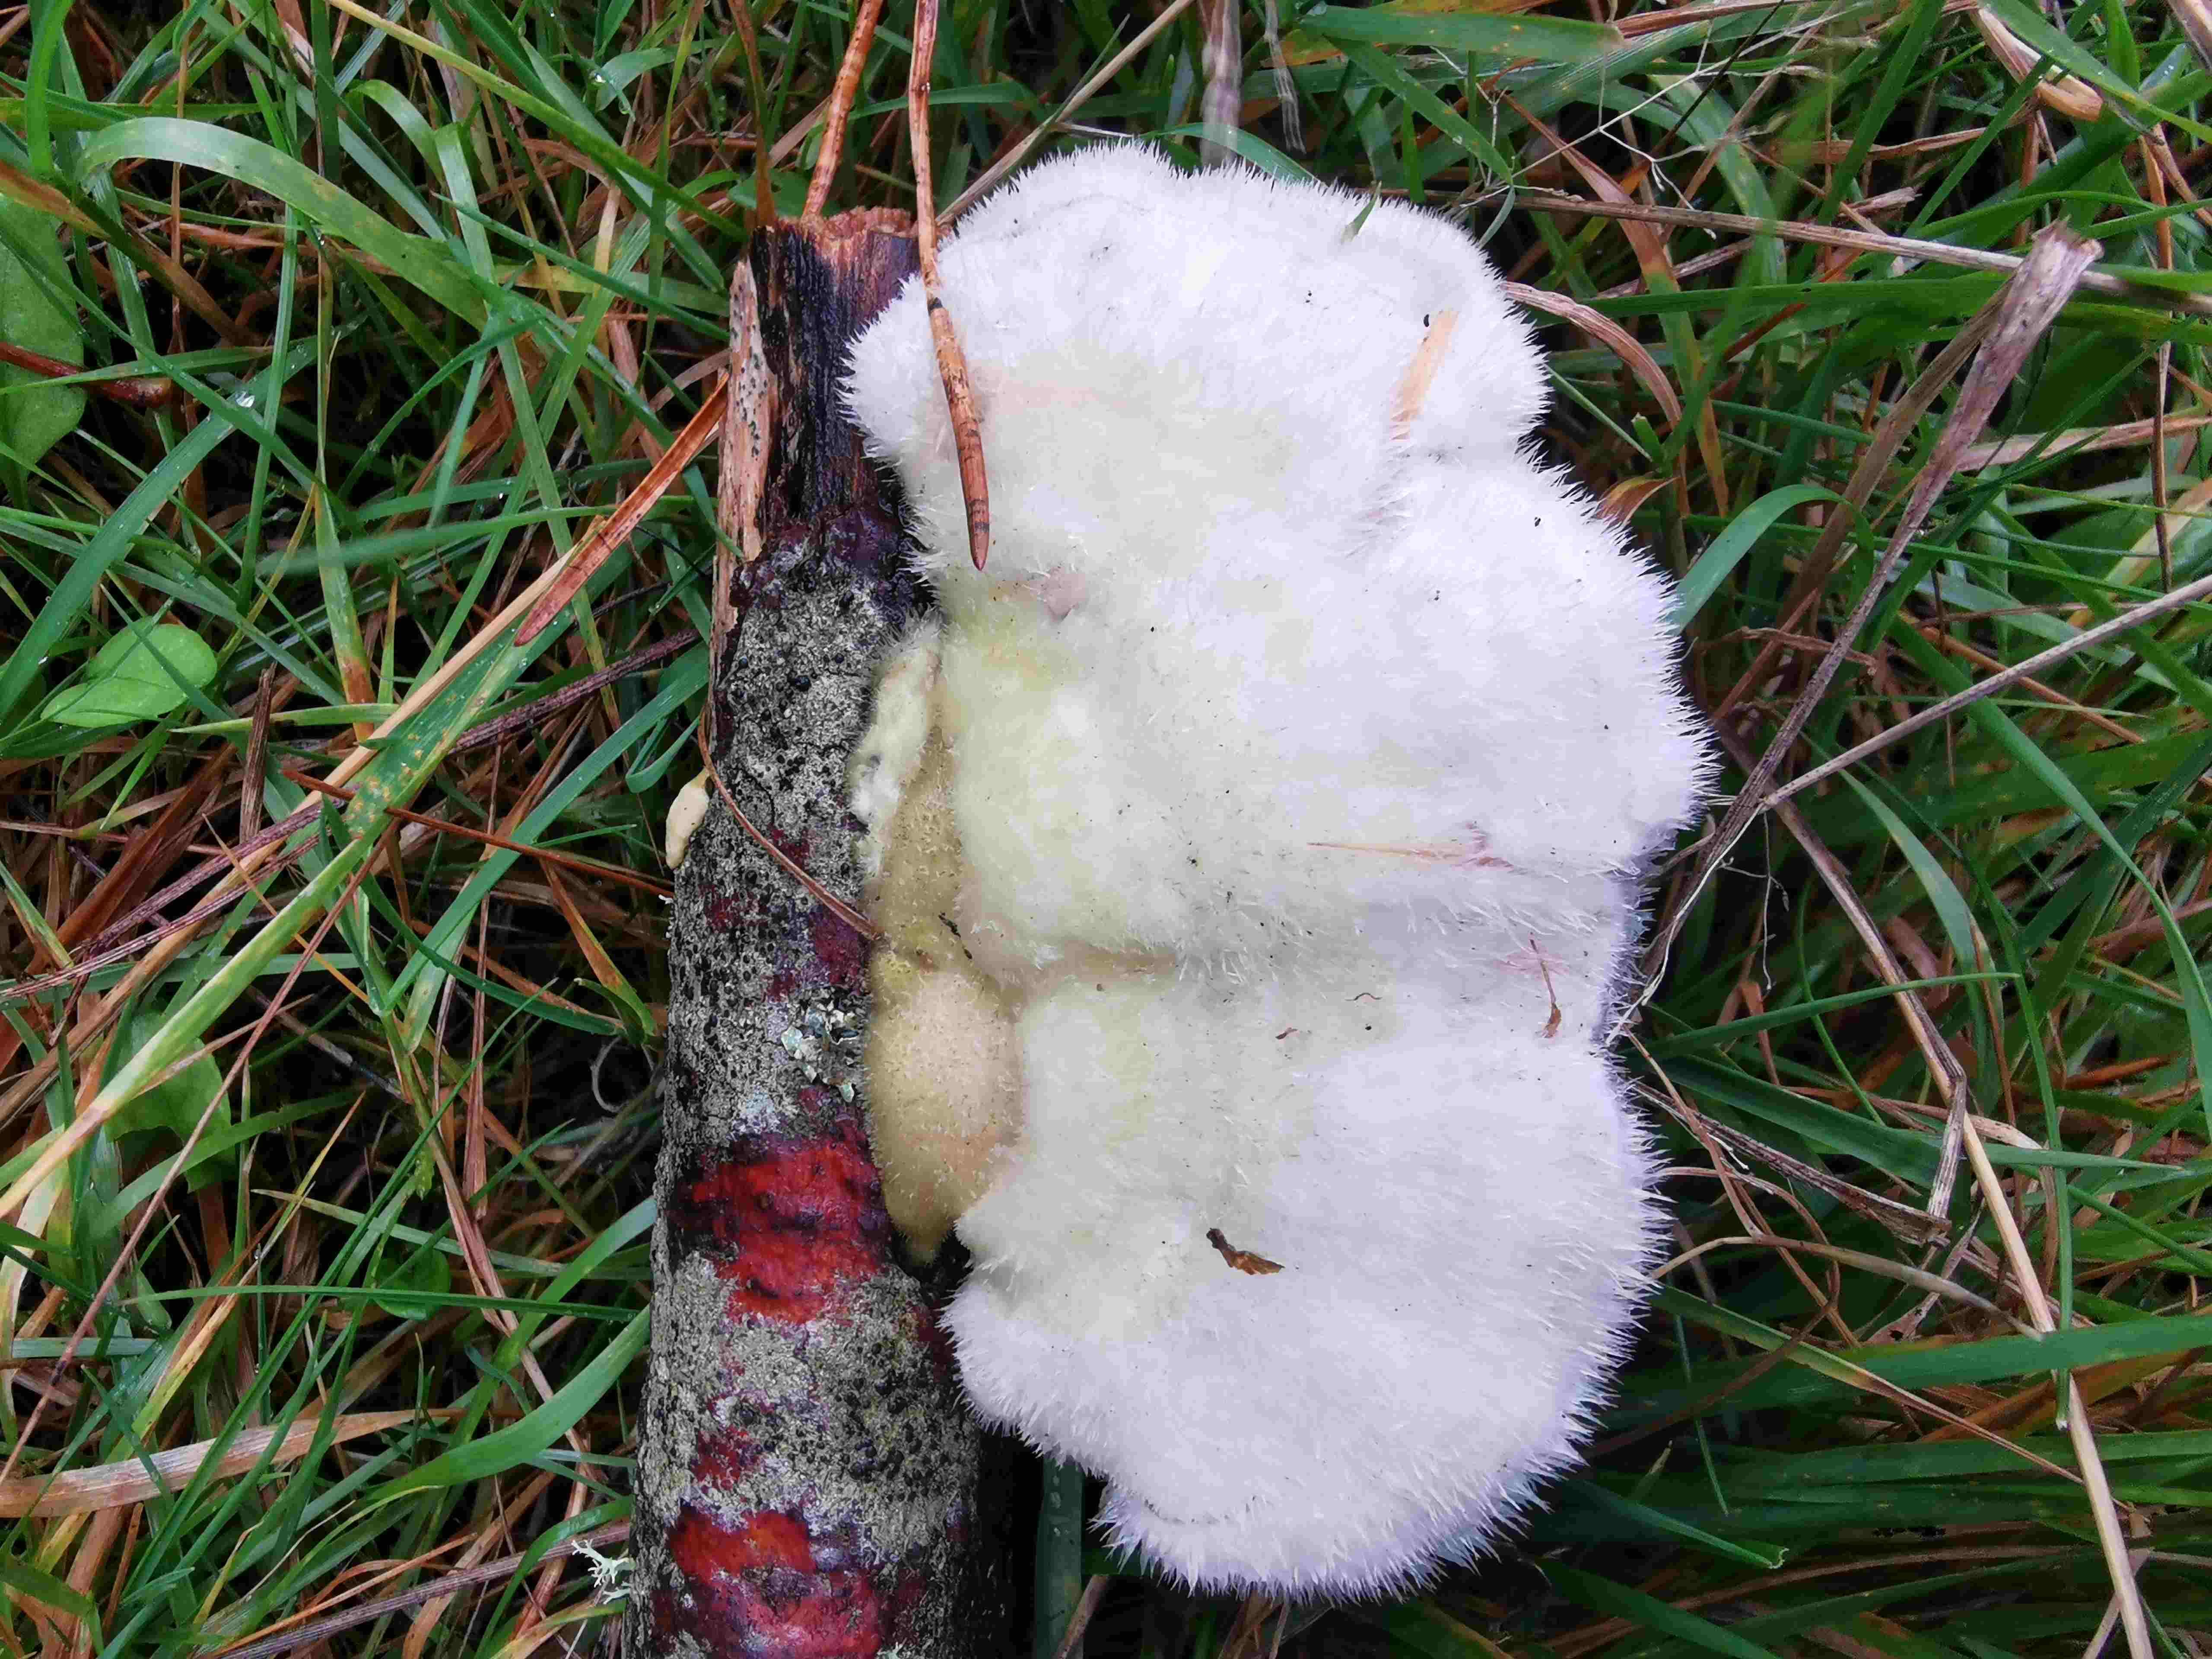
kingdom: Fungi
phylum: Basidiomycota
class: Agaricomycetes
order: Polyporales
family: Polyporaceae
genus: Trametes
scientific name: Trametes hirsuta
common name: håret læderporesvamp
